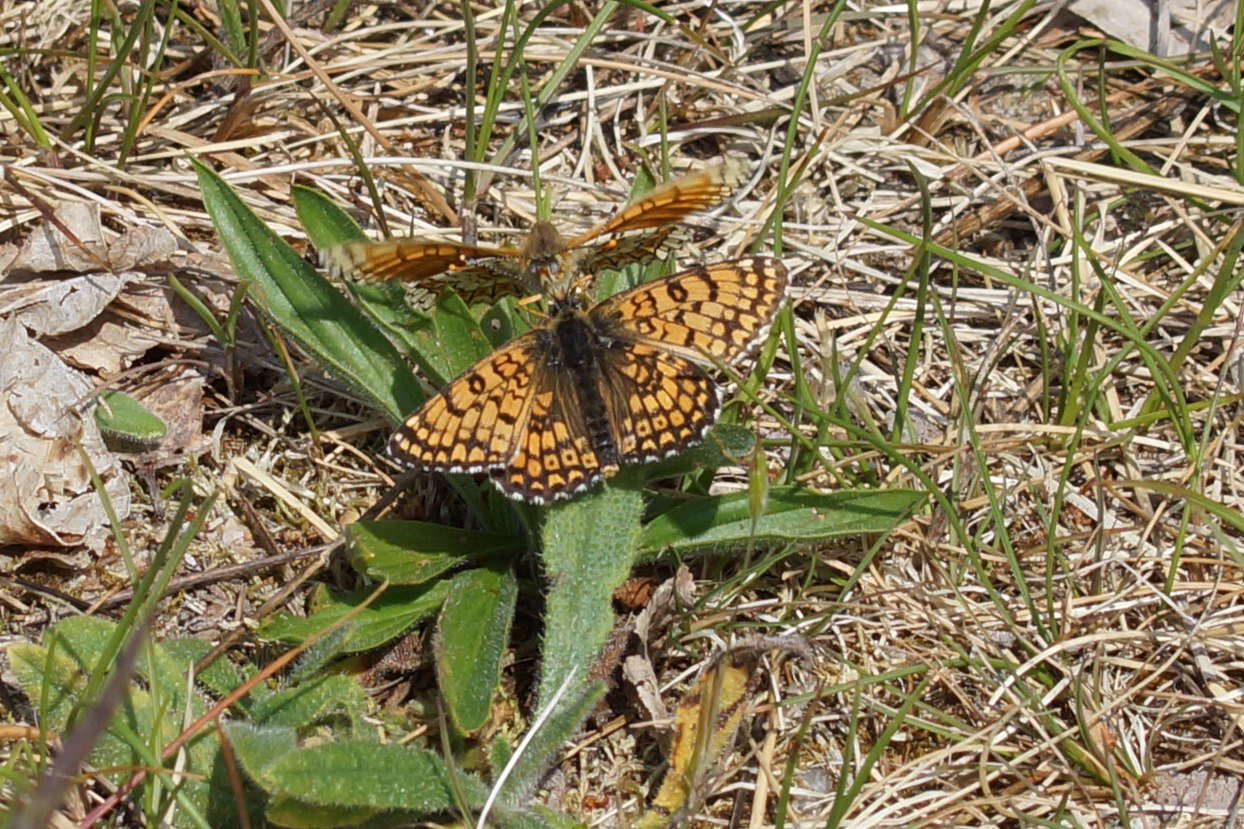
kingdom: Animalia
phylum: Arthropoda
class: Insecta
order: Lepidoptera
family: Nymphalidae
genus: Melitaea
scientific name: Melitaea cinxia
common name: Okkergul pletvinge
